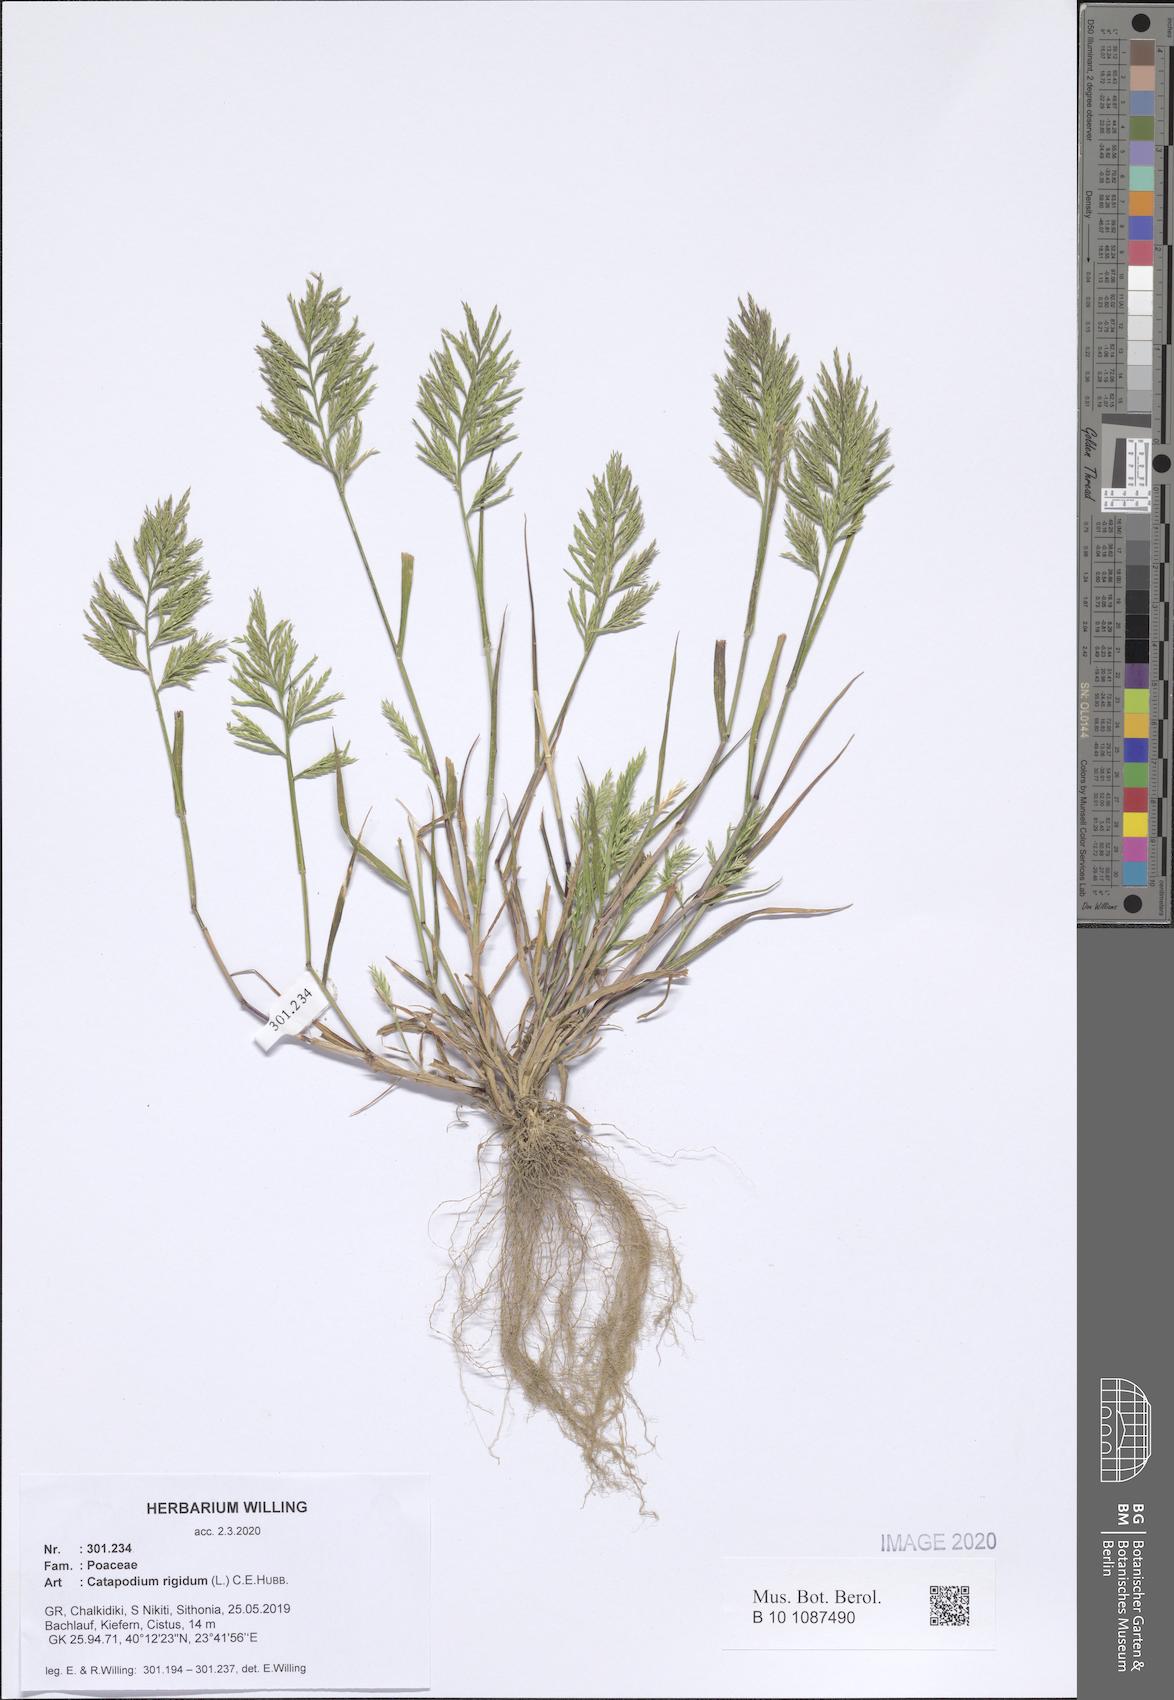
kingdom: Plantae
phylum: Tracheophyta
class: Liliopsida
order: Poales
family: Poaceae
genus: Catapodium
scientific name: Catapodium rigidum
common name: Fern-grass
